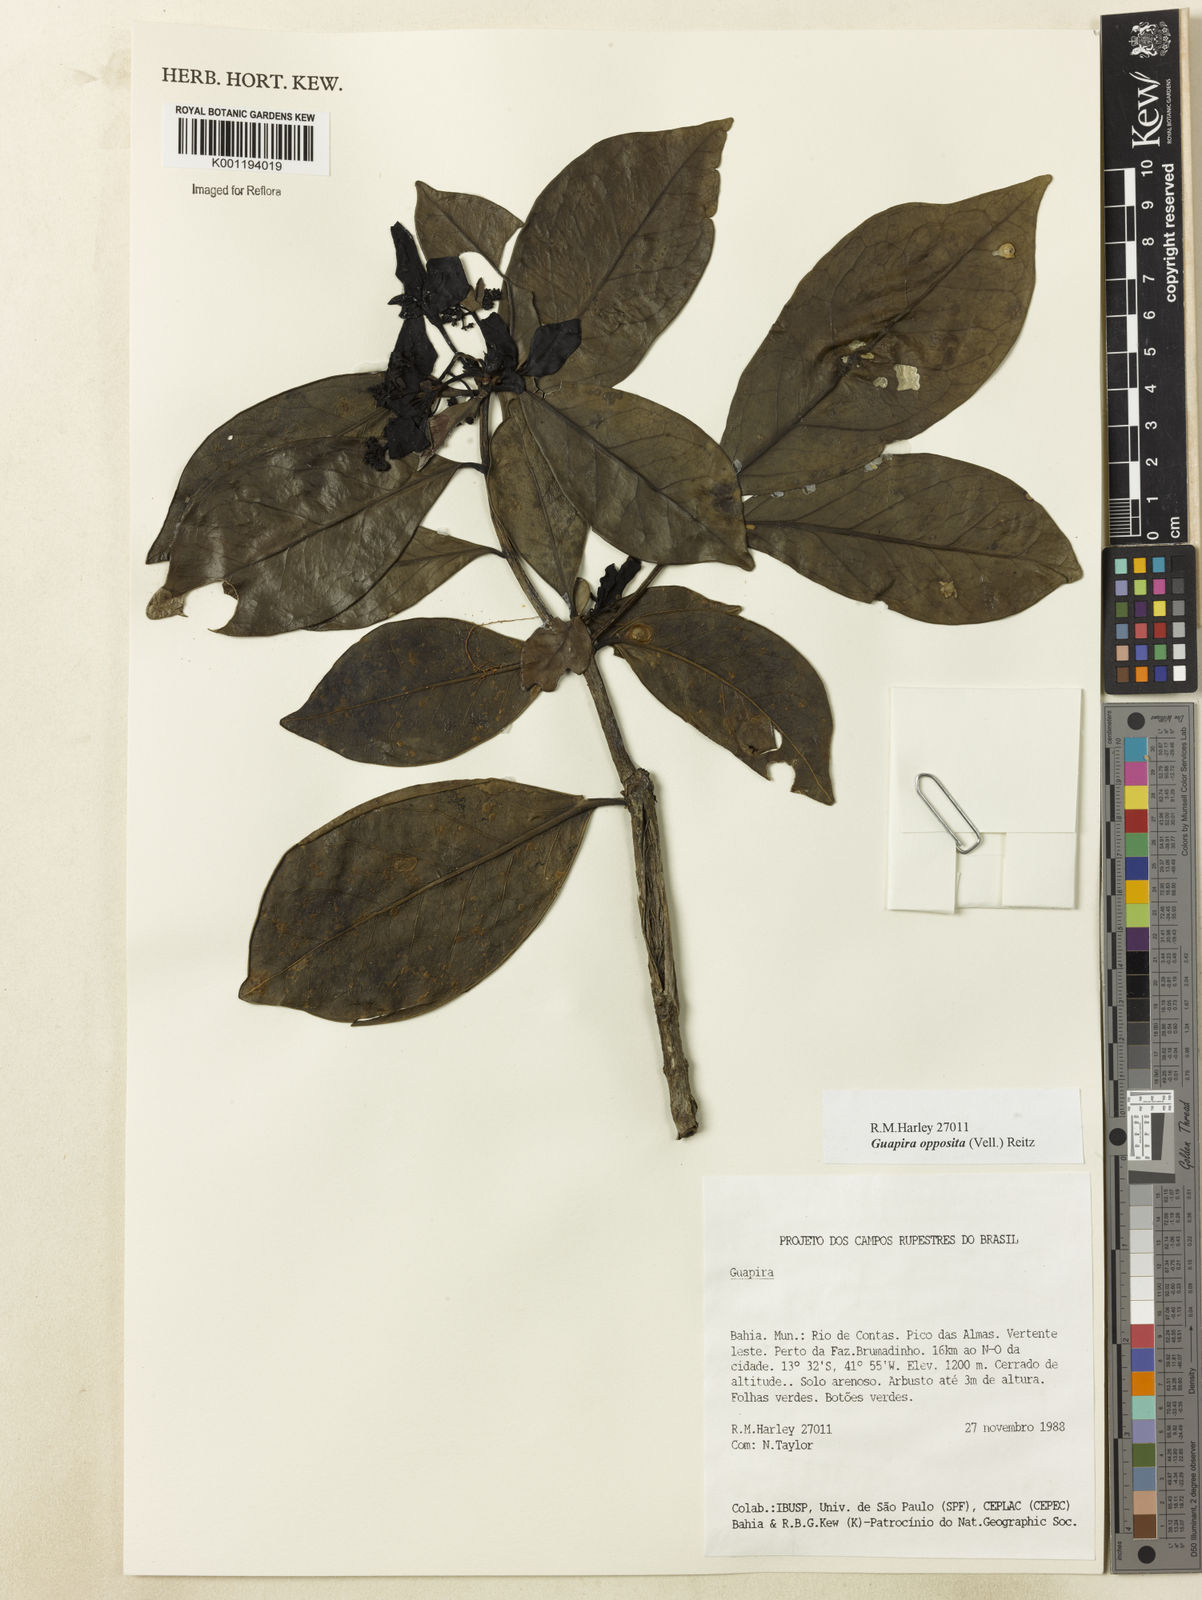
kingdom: Plantae
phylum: Tracheophyta
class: Magnoliopsida
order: Caryophyllales
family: Nyctaginaceae
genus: Guapira
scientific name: Guapira opposita
